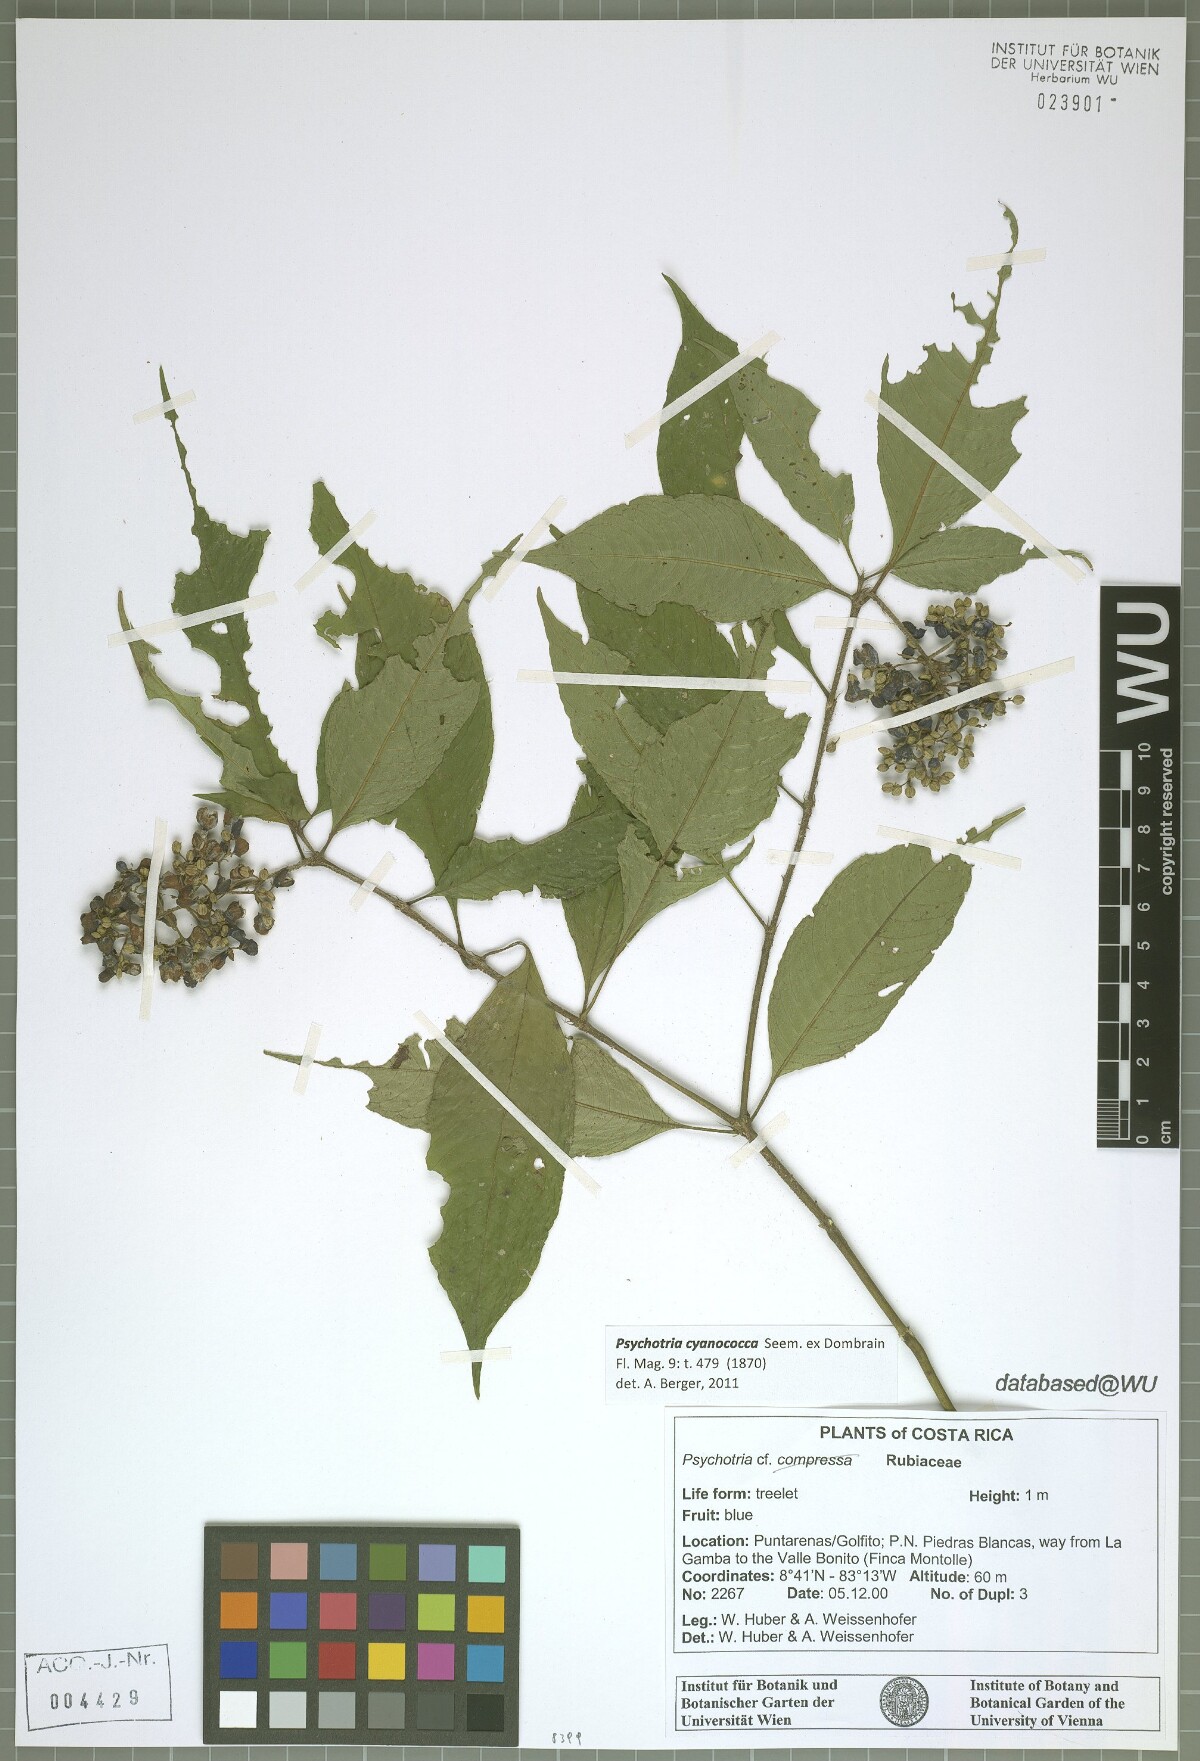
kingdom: Plantae
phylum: Tracheophyta
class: Magnoliopsida
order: Gentianales
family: Rubiaceae
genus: Palicourea
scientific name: Palicourea cyanococca
